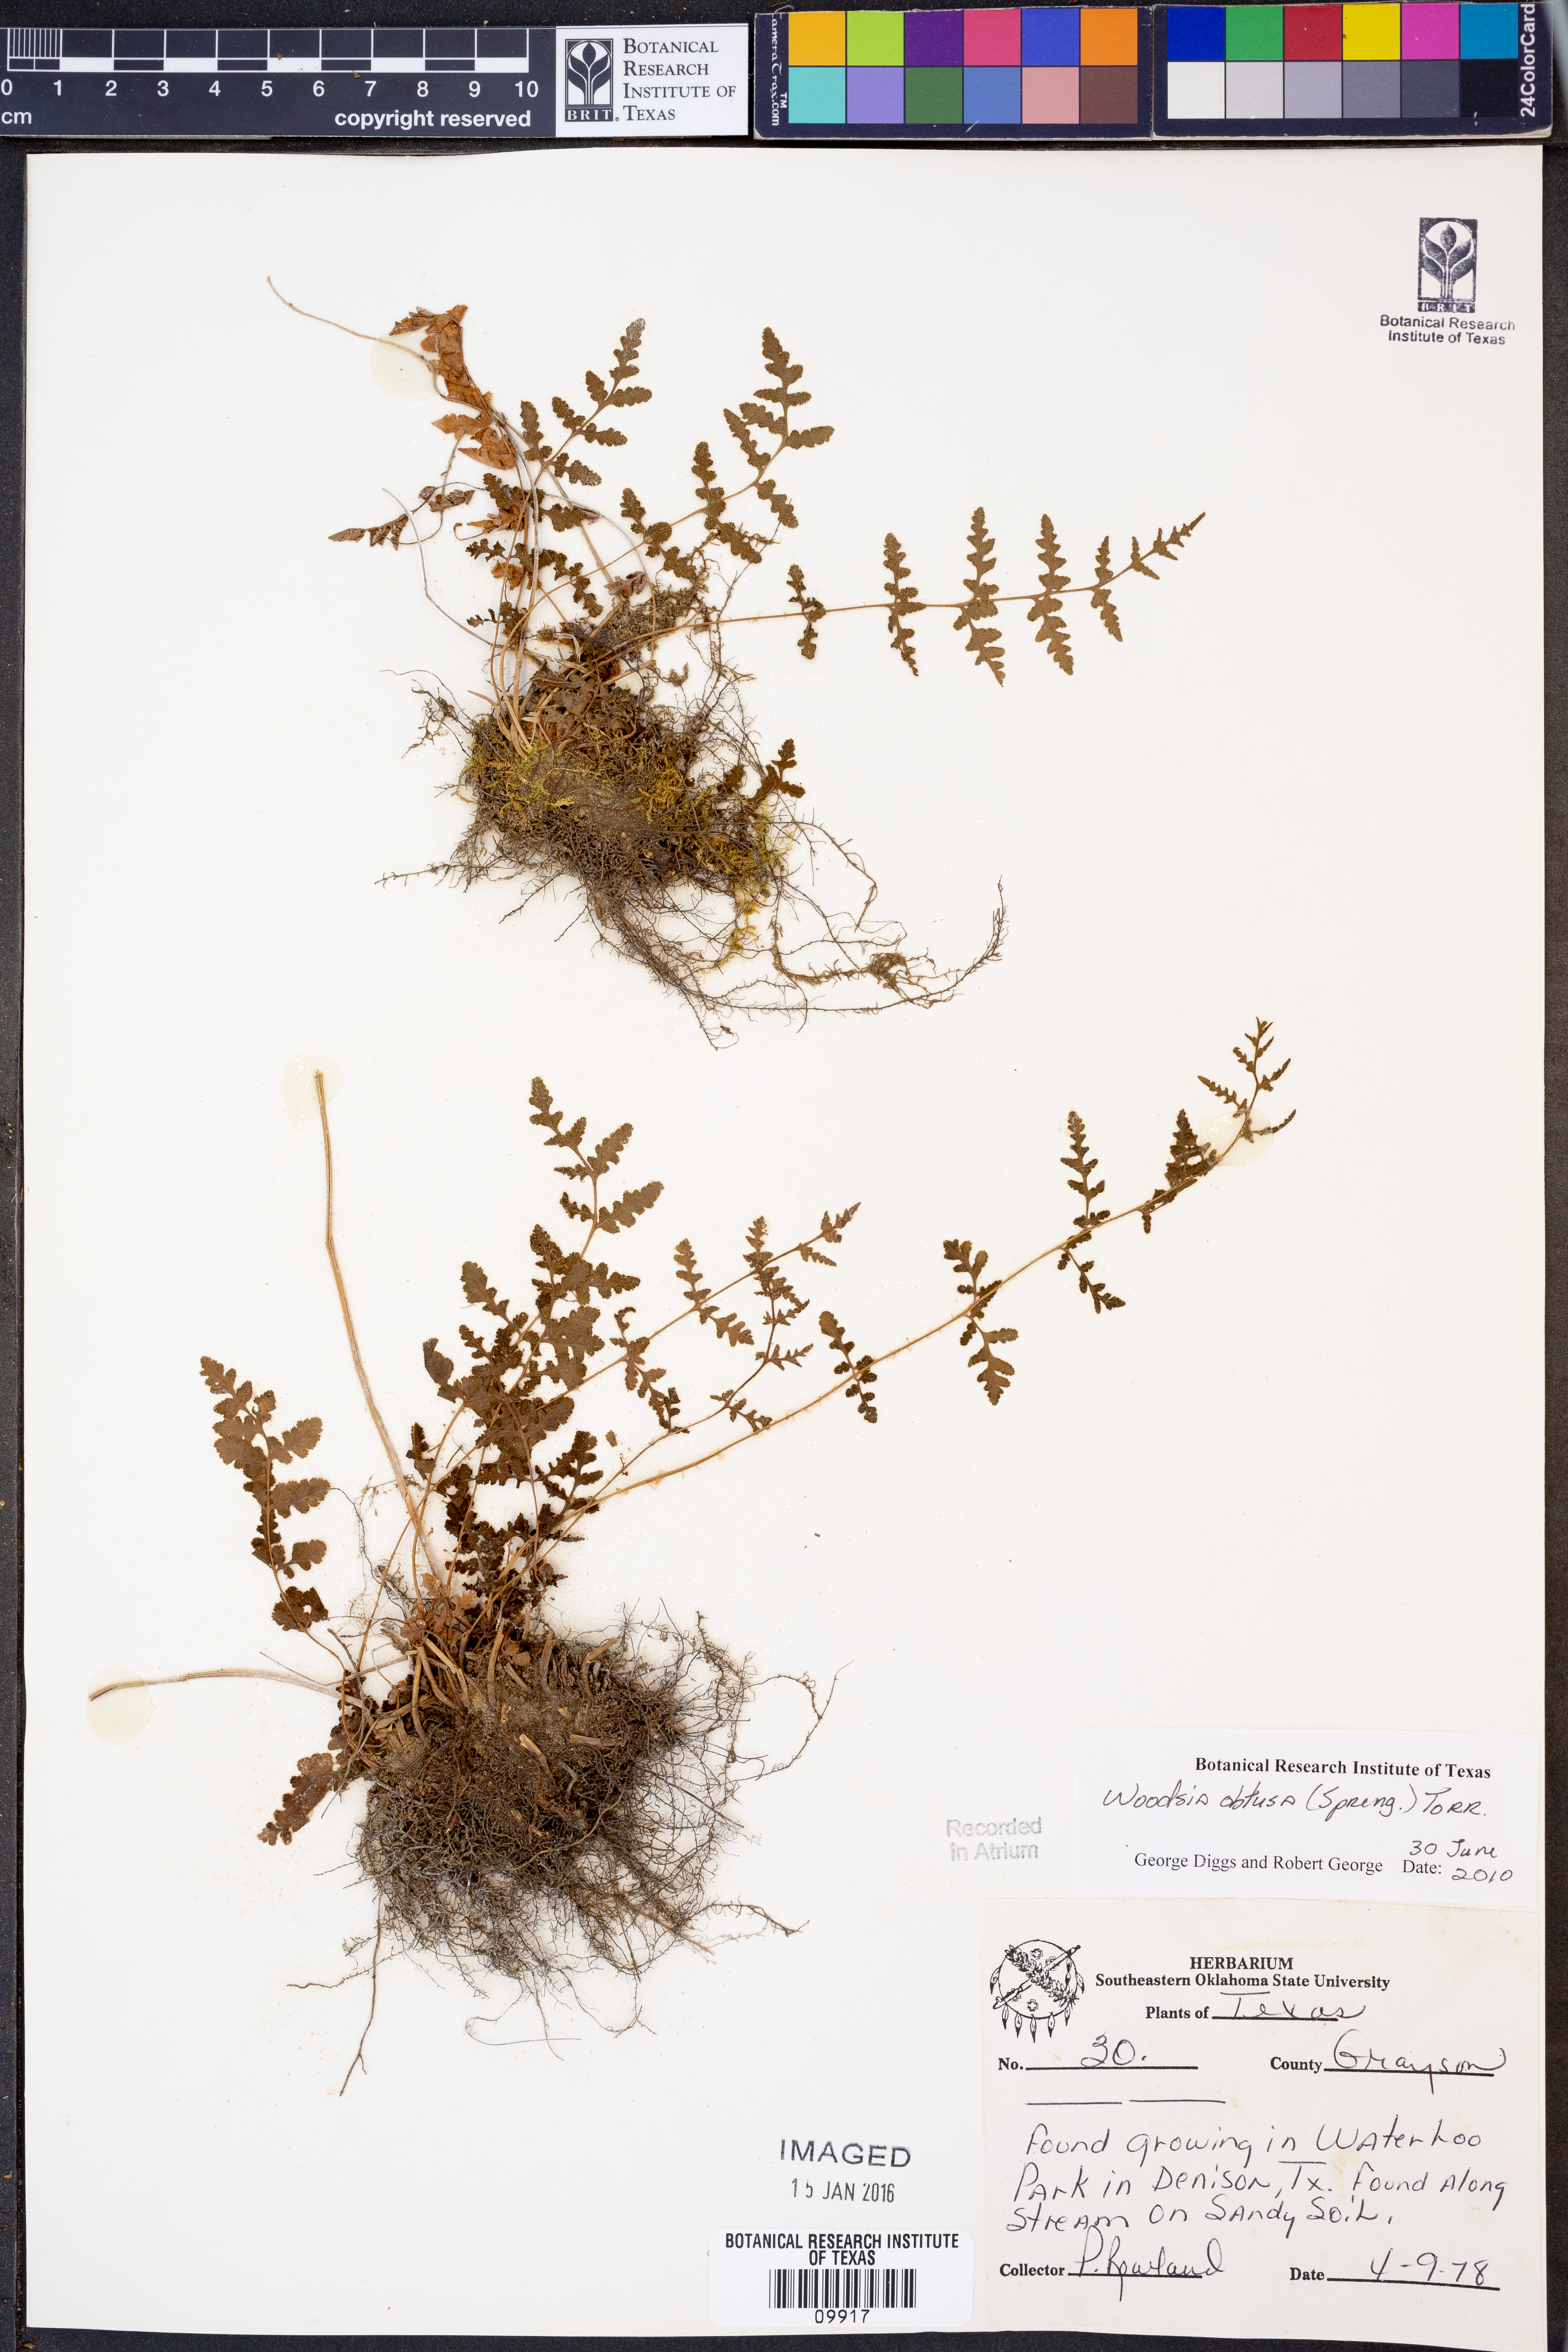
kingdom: Plantae
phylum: Tracheophyta
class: Polypodiopsida
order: Polypodiales
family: Woodsiaceae
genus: Physematium
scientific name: Physematium obtusum
